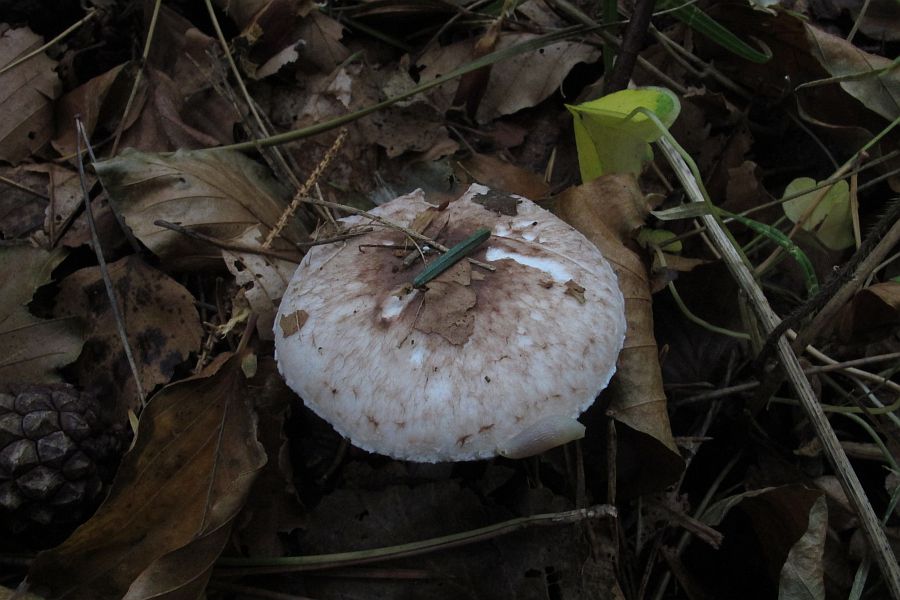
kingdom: Fungi
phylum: Basidiomycota
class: Agaricomycetes
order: Agaricales
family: Agaricaceae
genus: Agaricus
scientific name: Agaricus impudicus
